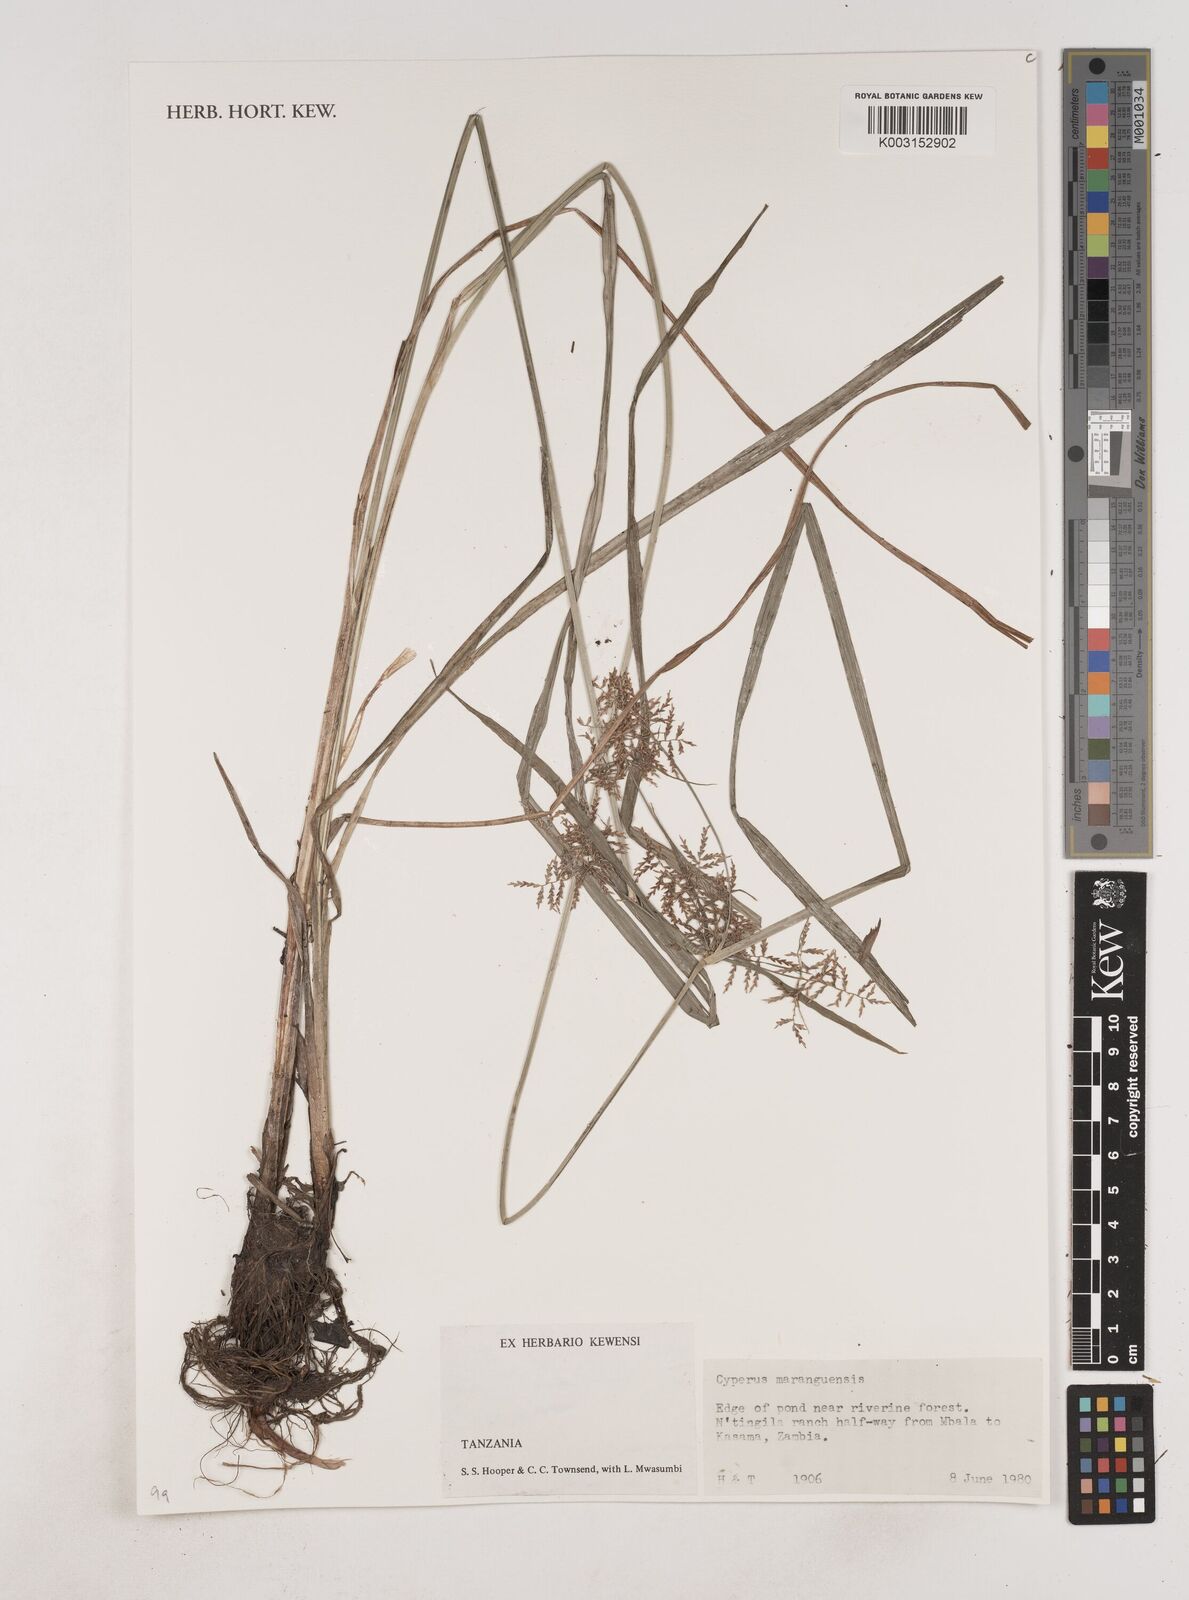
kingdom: Plantae
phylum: Tracheophyta
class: Liliopsida
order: Poales
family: Cyperaceae
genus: Cyperus
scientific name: Cyperus maranguensis
